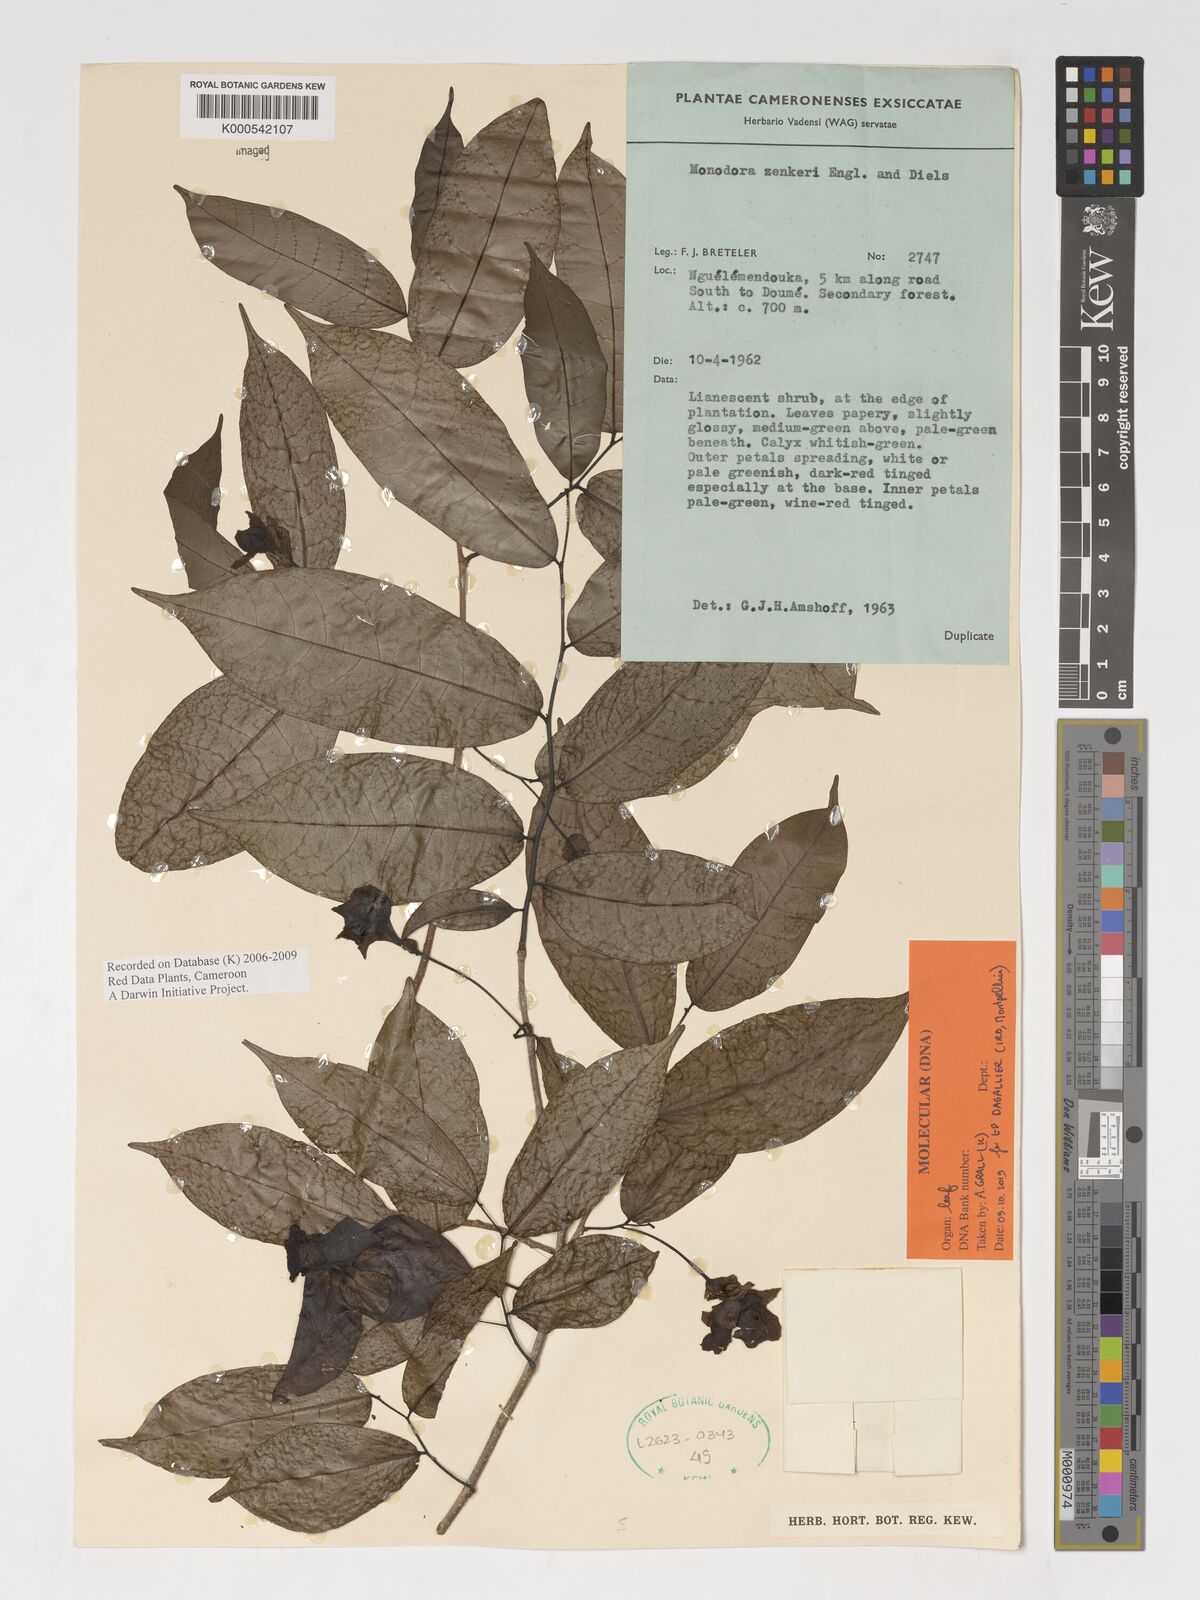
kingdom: Plantae
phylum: Tracheophyta
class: Magnoliopsida
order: Magnoliales
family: Annonaceae
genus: Monodora
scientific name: Monodora zenkeri
